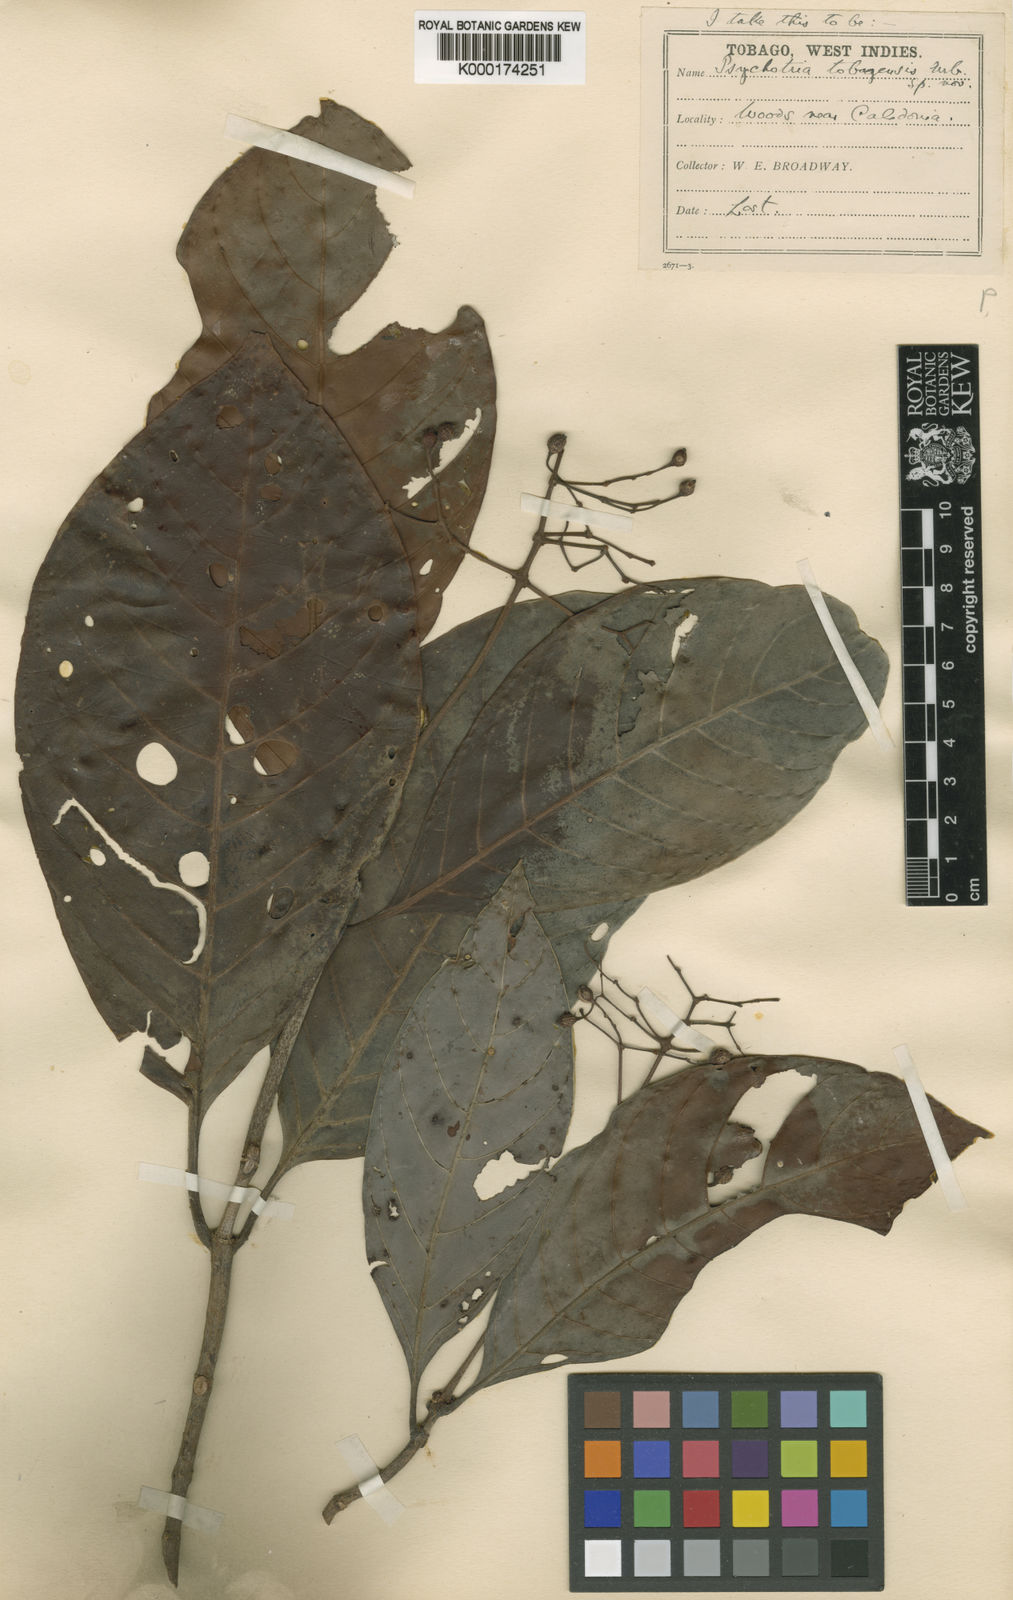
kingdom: Plantae
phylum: Tracheophyta
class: Magnoliopsida
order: Gentianales
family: Rubiaceae
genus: Psychotria
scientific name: Psychotria pedunculosa
